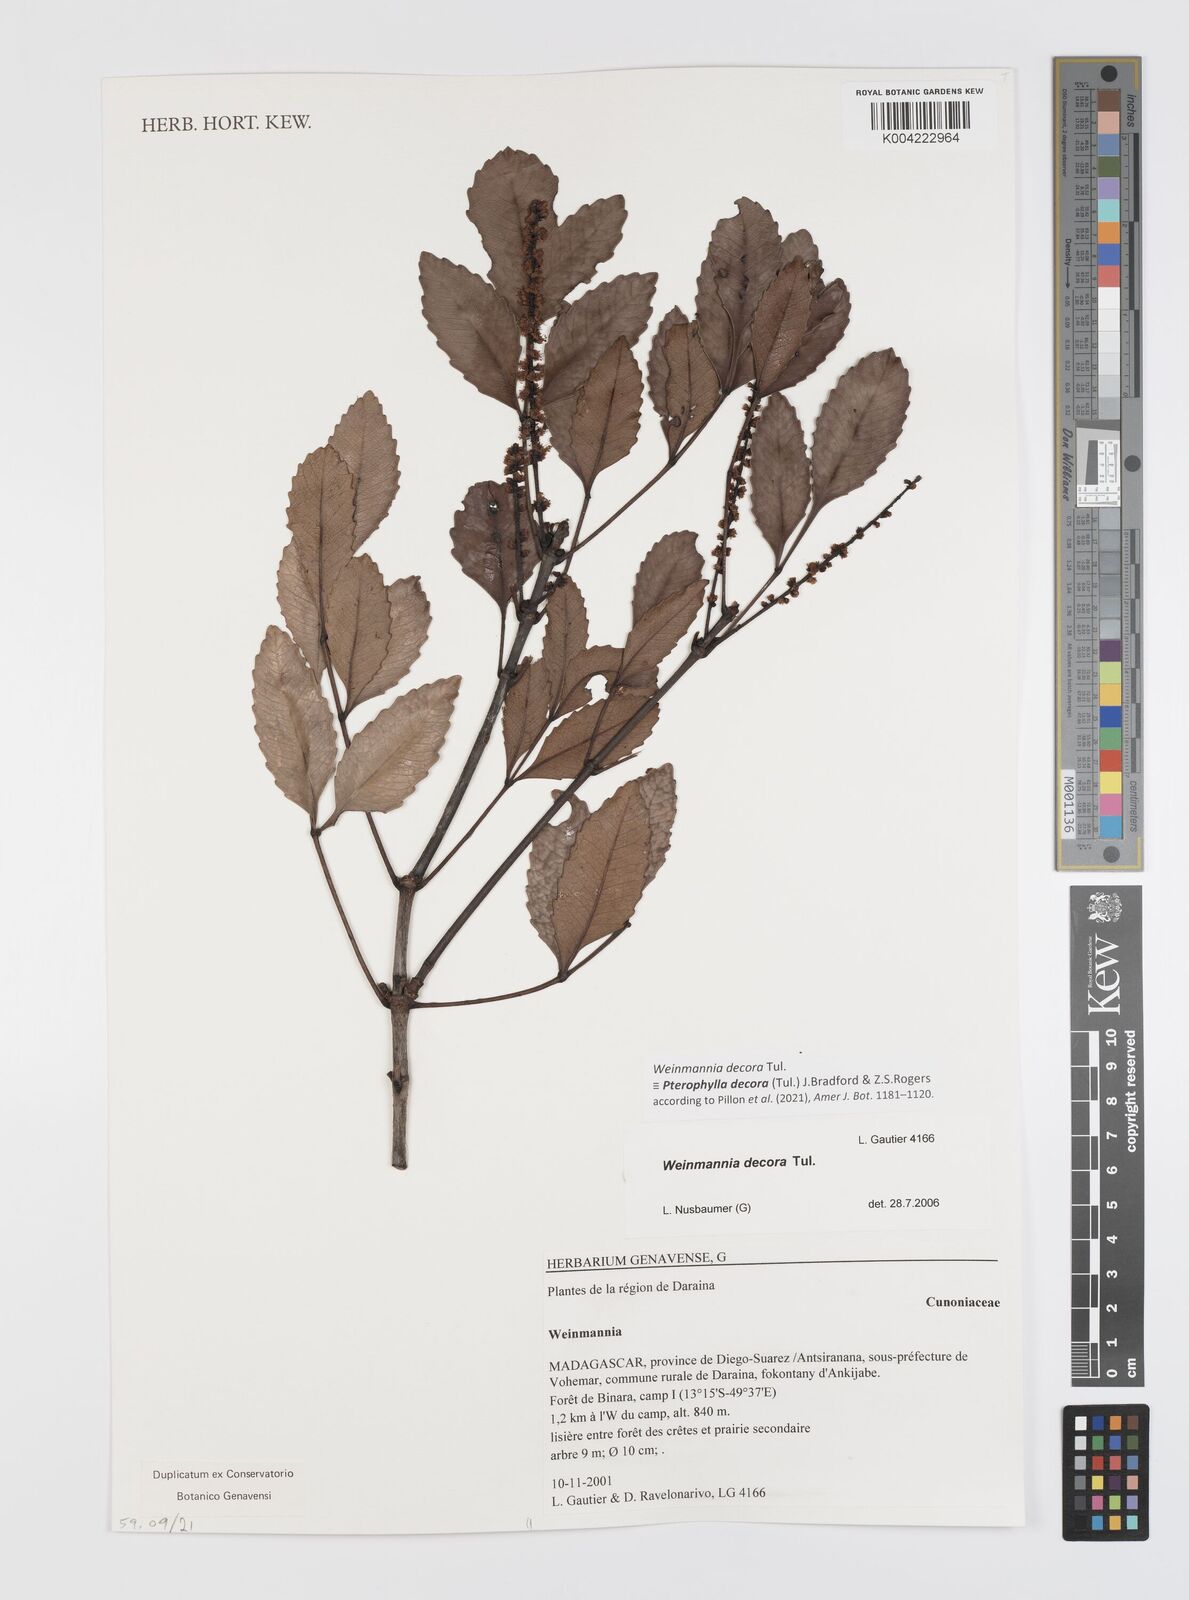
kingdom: Plantae
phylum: Tracheophyta
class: Magnoliopsida
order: Oxalidales
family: Cunoniaceae
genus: Pterophylla
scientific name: Pterophylla decora
